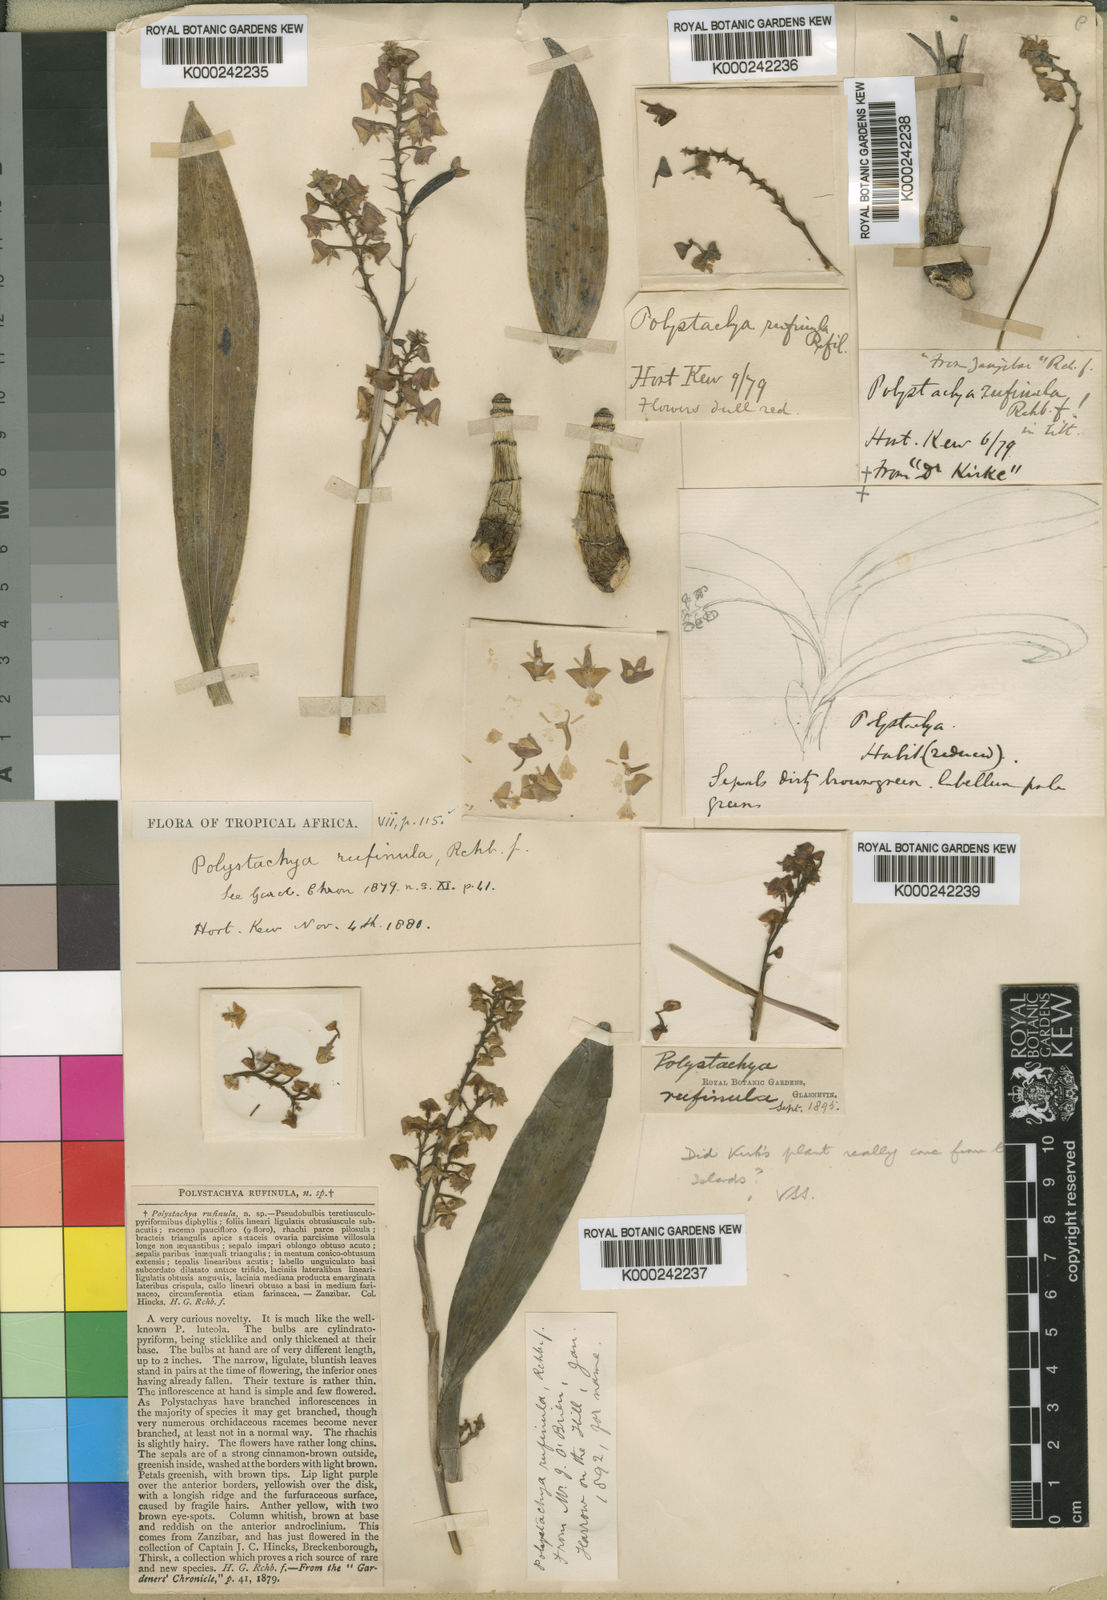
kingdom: Plantae
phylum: Tracheophyta
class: Liliopsida
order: Asparagales
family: Orchidaceae
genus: Polystachya
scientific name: Polystachya concreta
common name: Greater yellowspike orchid
